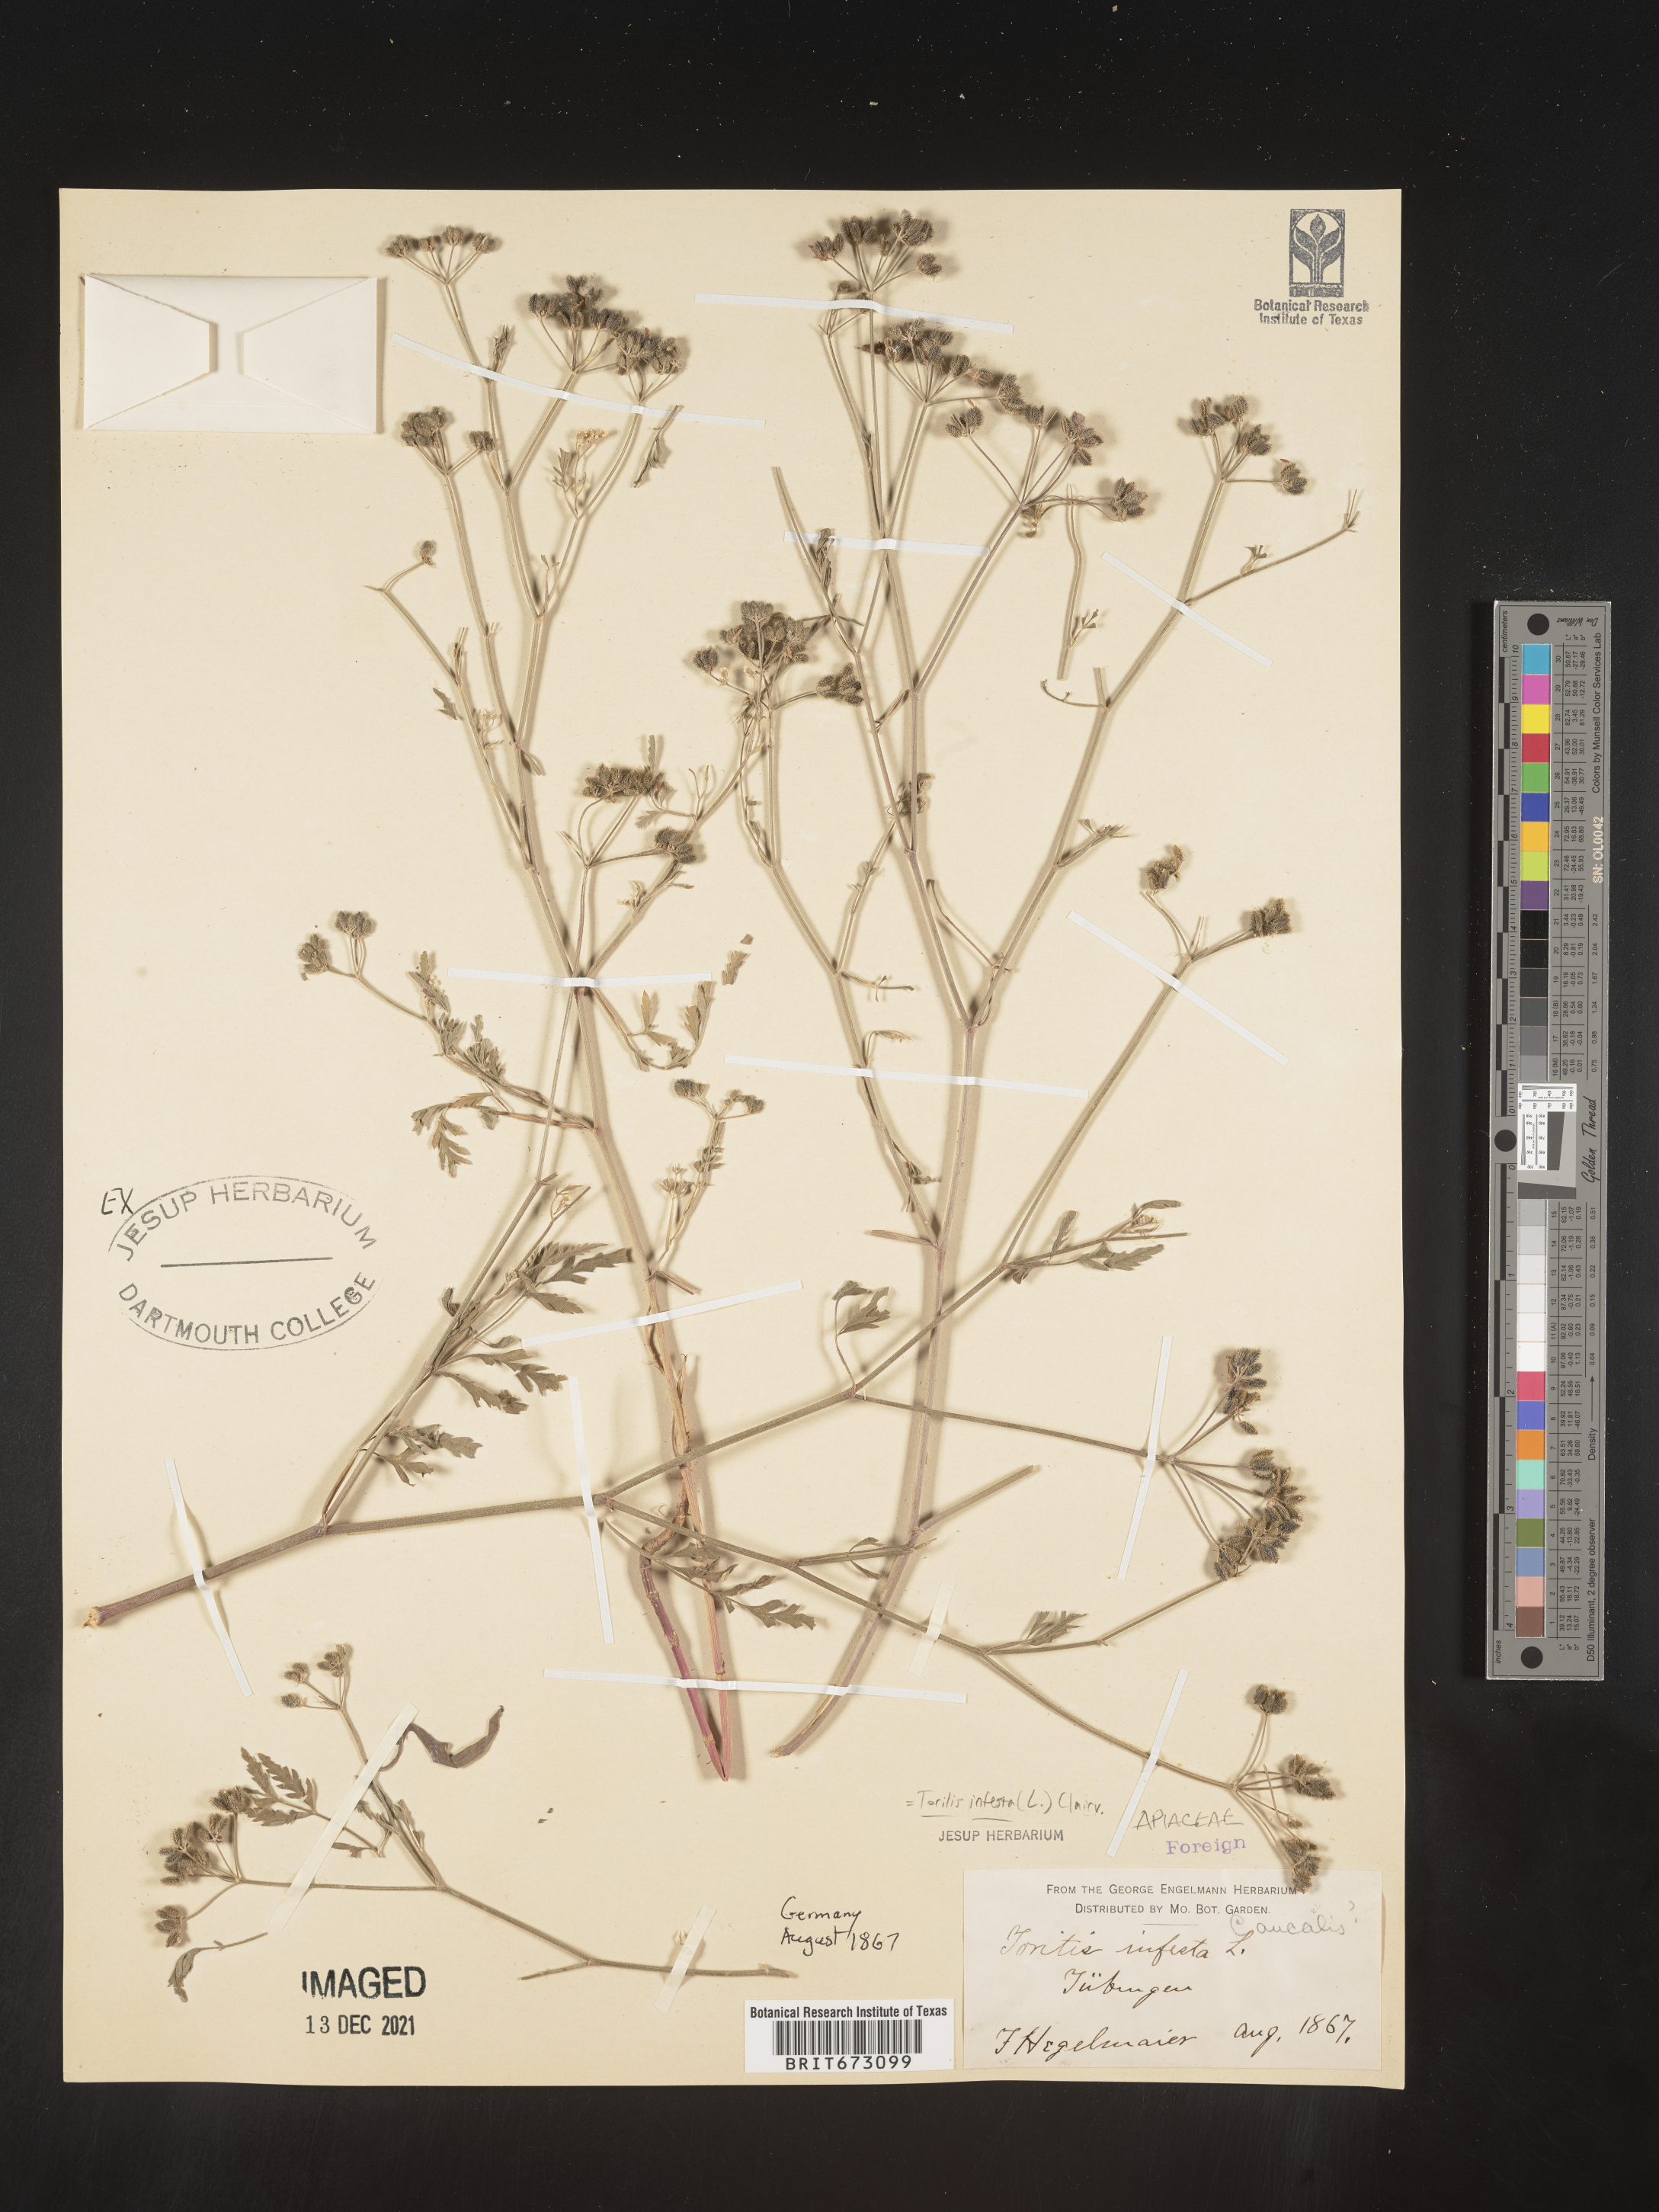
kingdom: Plantae
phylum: Tracheophyta
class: Magnoliopsida
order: Apiales
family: Apiaceae
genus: Torilis
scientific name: Torilis
